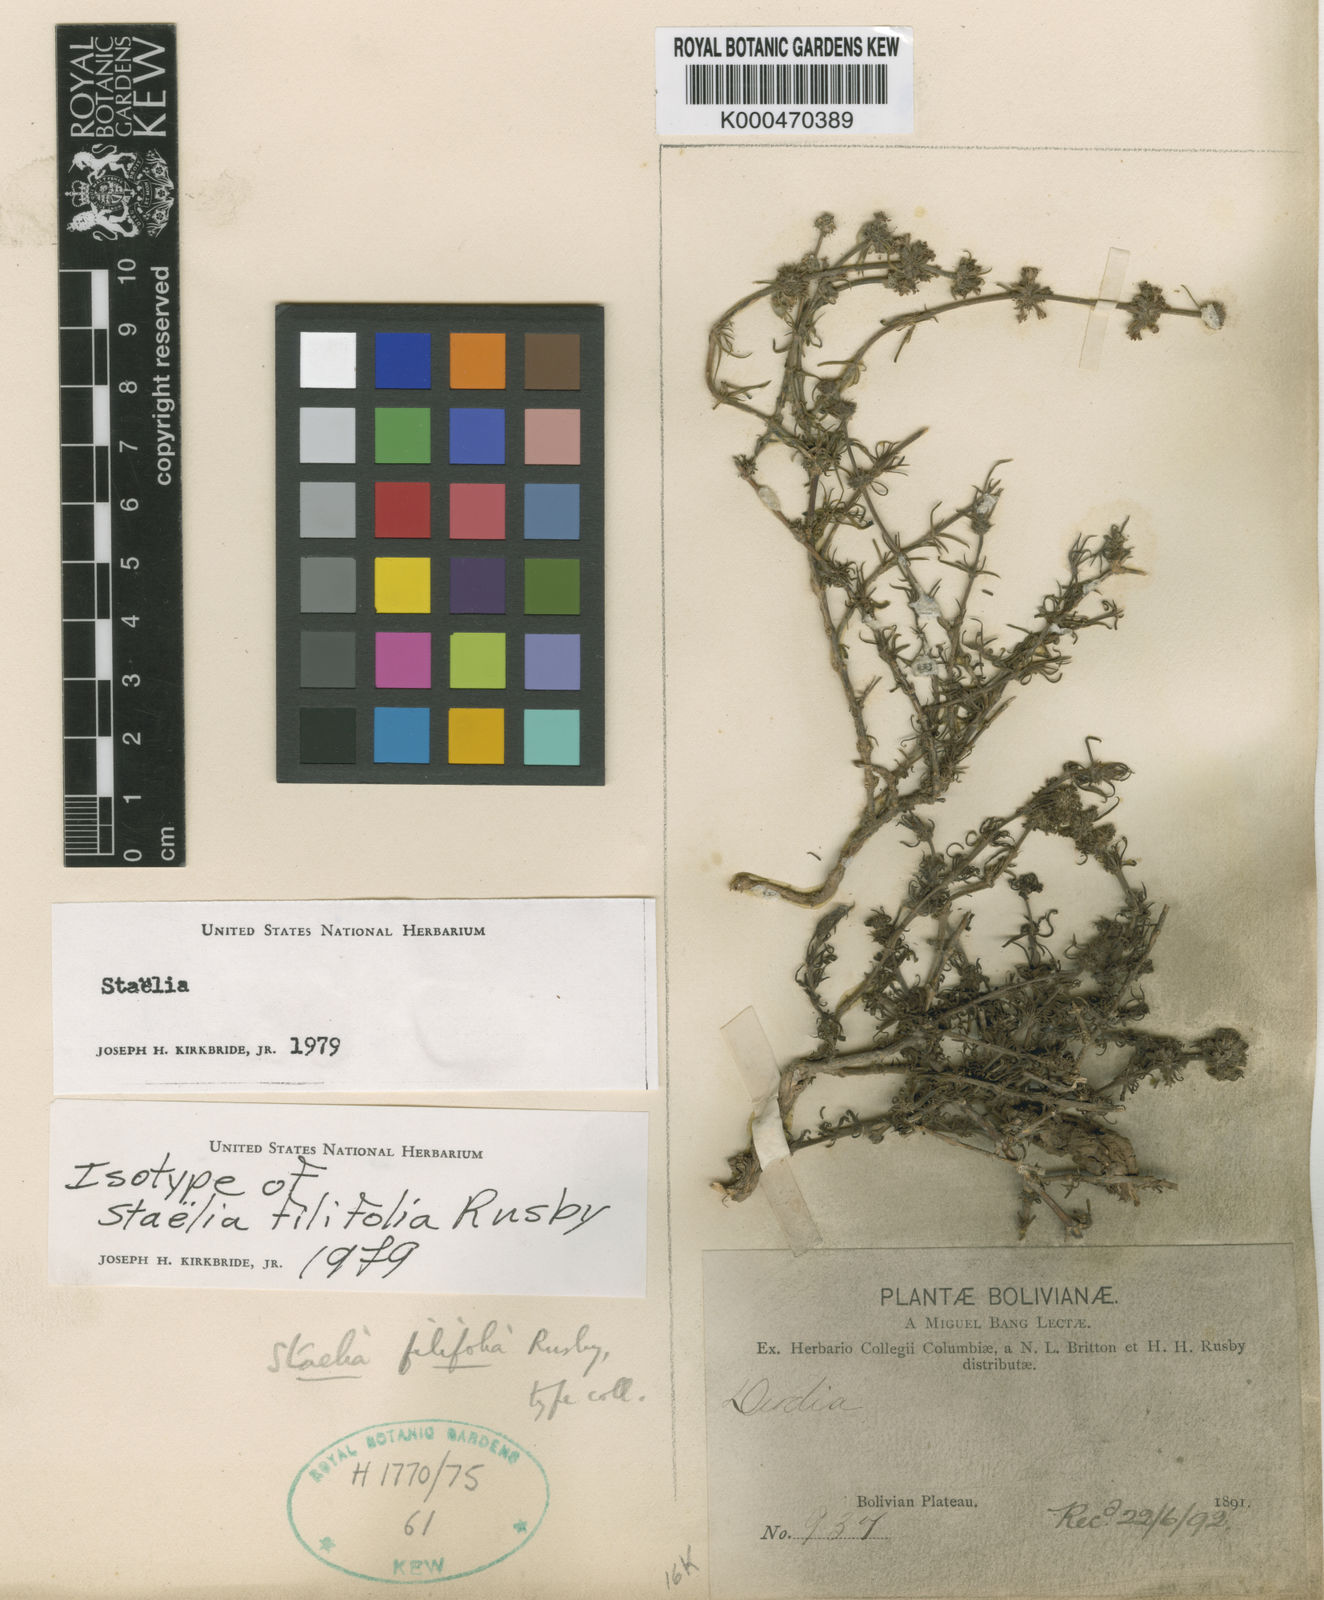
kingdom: Plantae
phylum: Tracheophyta
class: Magnoliopsida
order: Gentianales
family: Rubiaceae
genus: Staelia
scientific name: Staelia virgata
